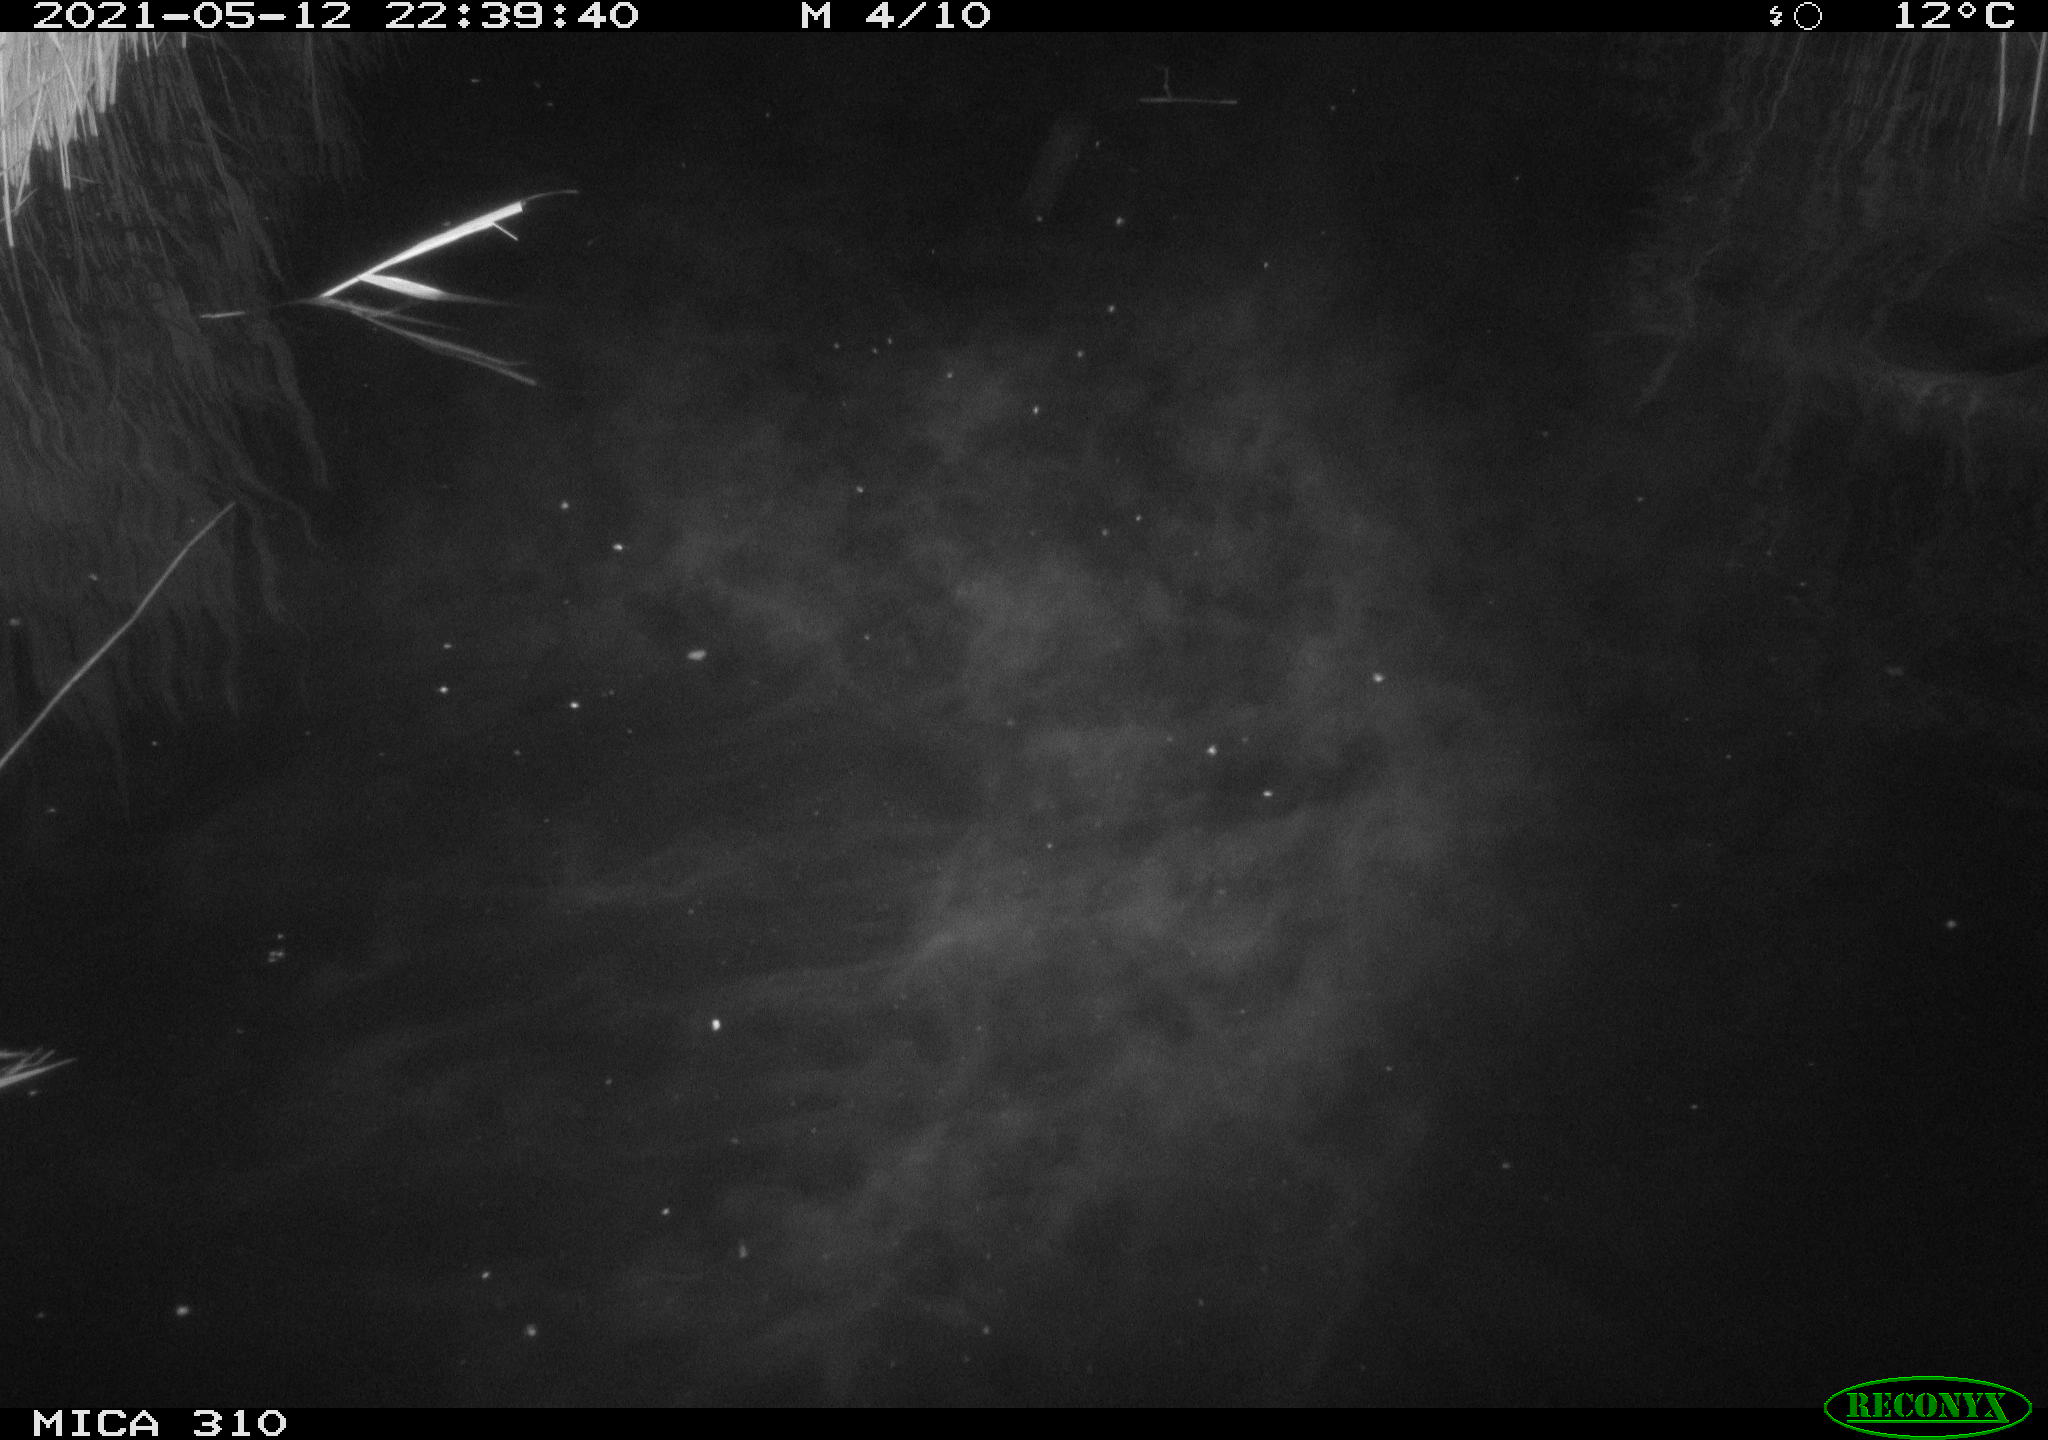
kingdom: Animalia
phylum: Chordata
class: Aves
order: Anseriformes
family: Anatidae
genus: Anas
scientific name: Anas platyrhynchos
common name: Mallard
